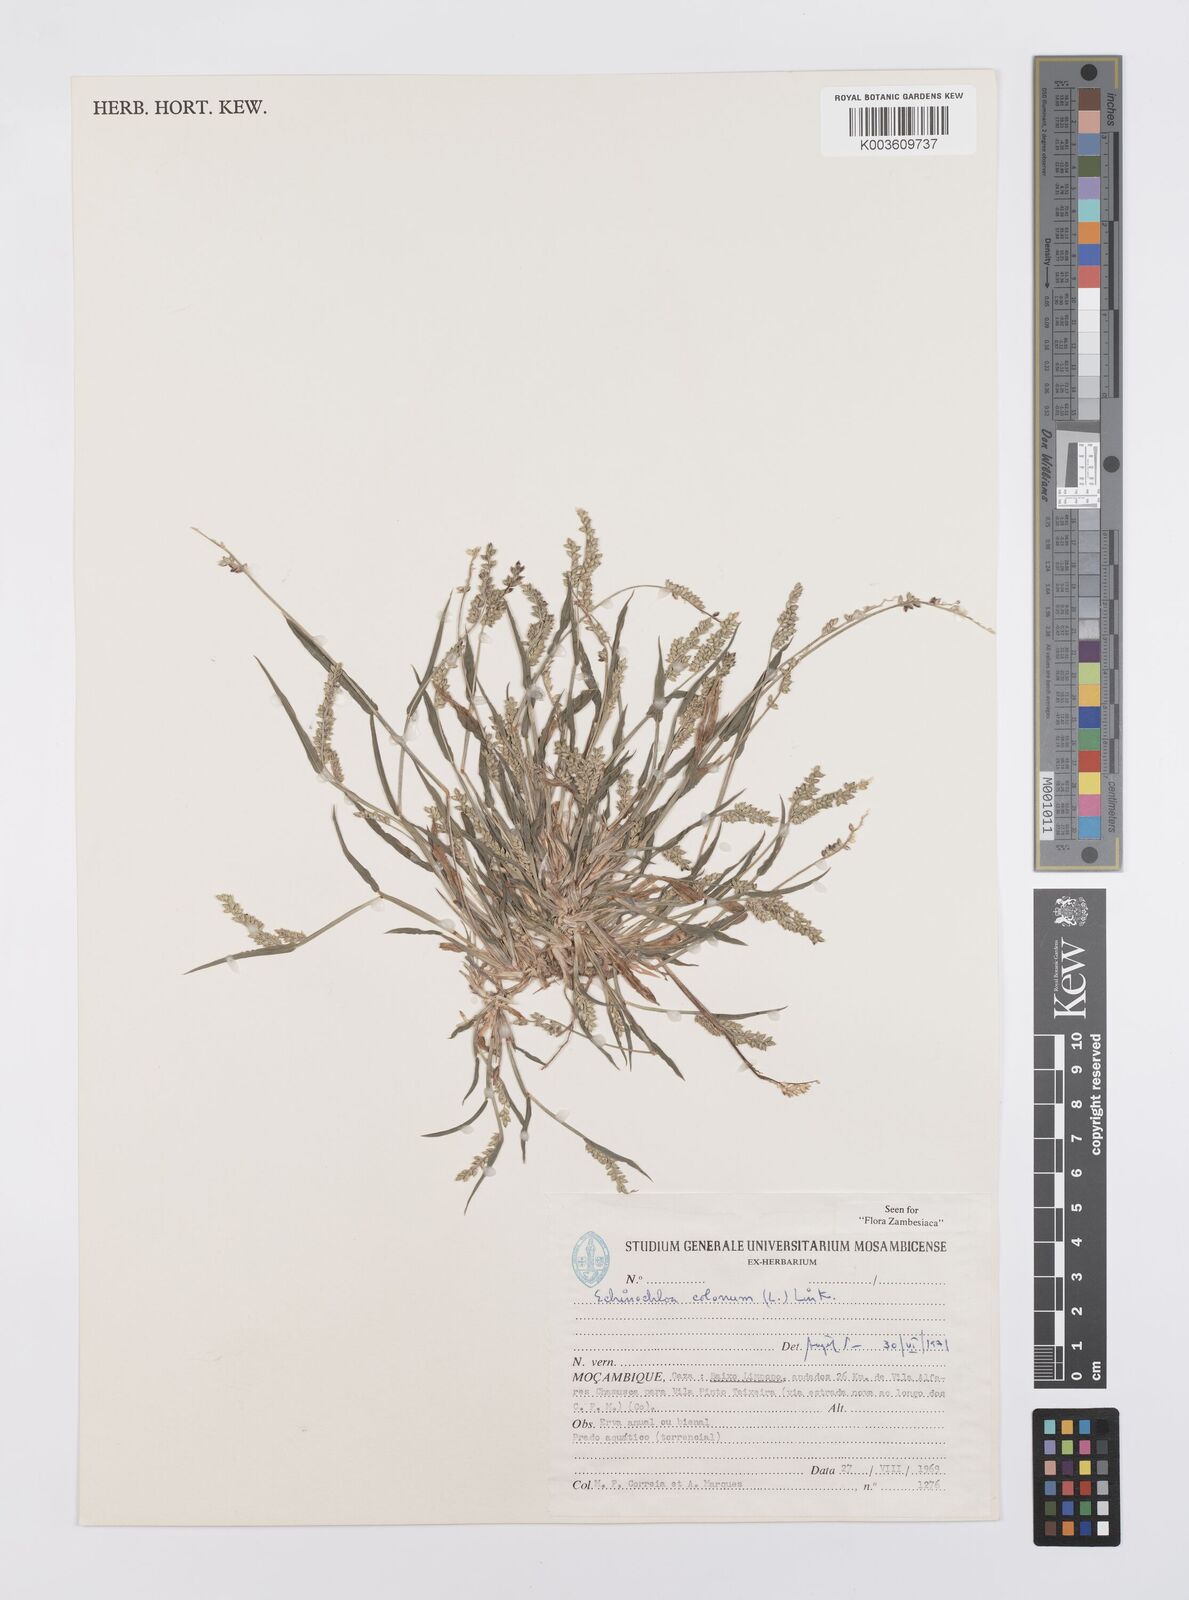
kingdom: Plantae
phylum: Tracheophyta
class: Liliopsida
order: Poales
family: Poaceae
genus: Echinochloa
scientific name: Echinochloa colonum
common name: Jungle rice
